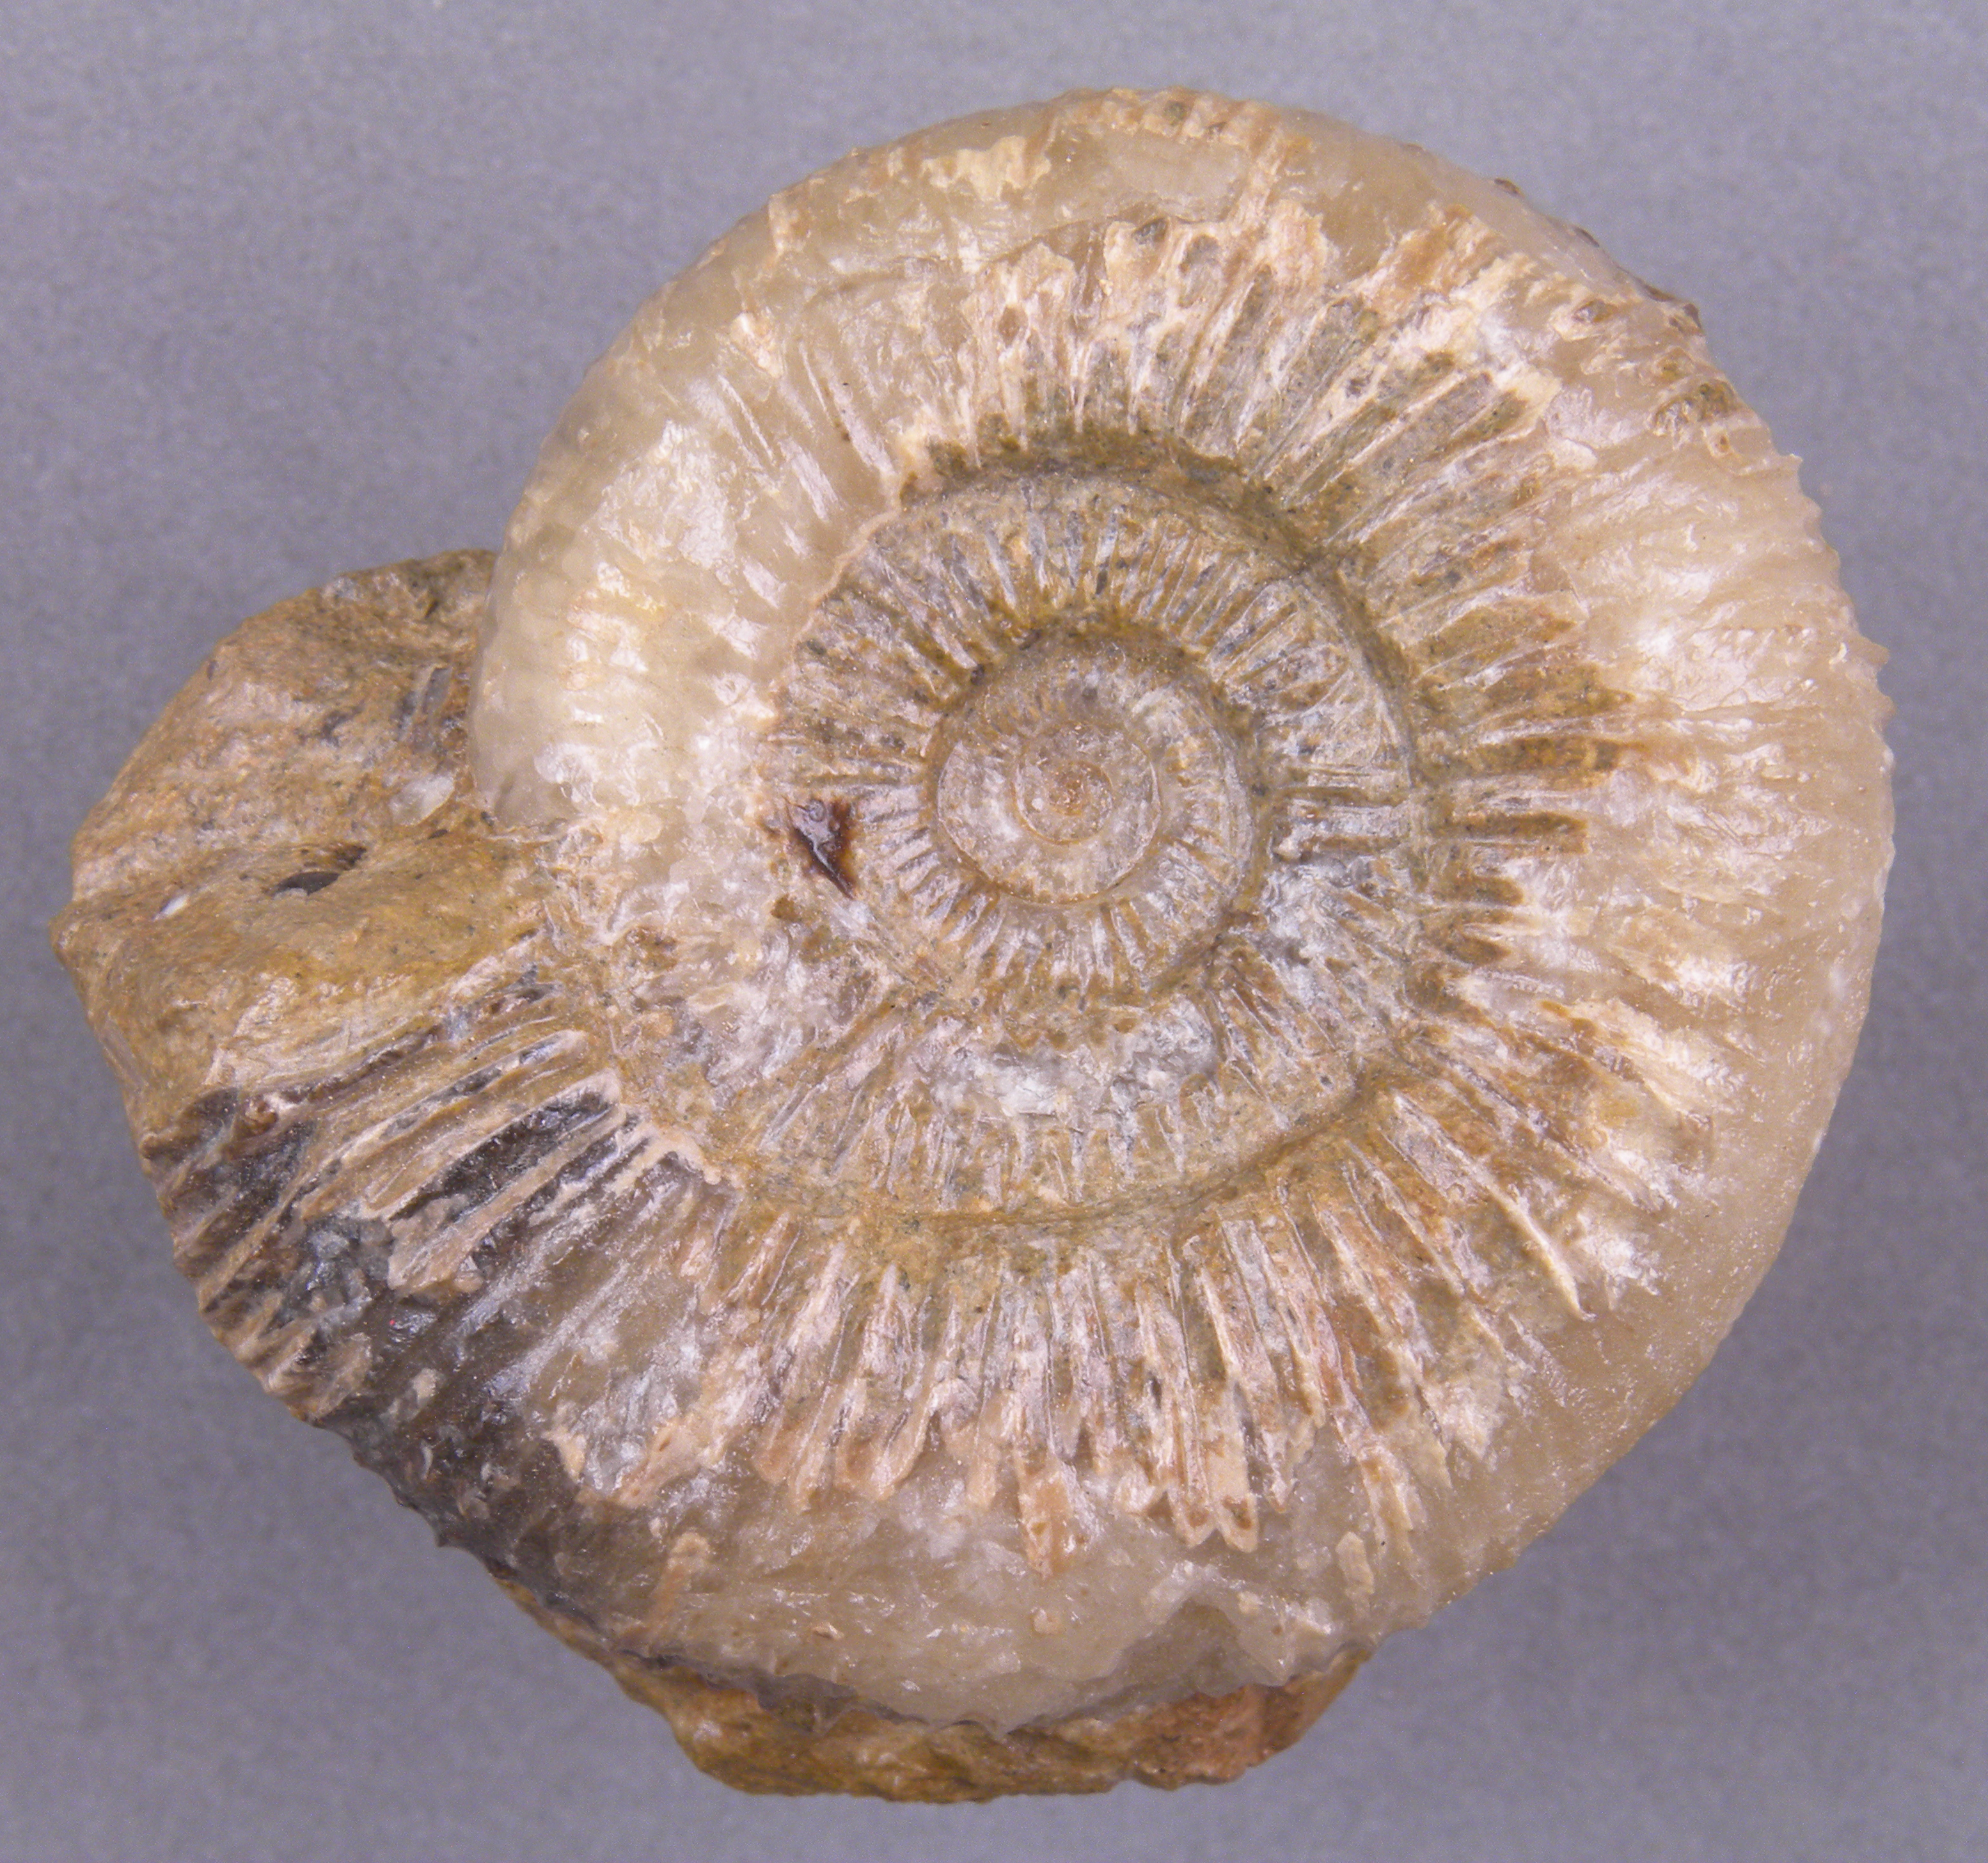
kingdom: Animalia
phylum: Mollusca
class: Cephalopoda
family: Dactylioceratidae
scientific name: Dactylioceratidae
